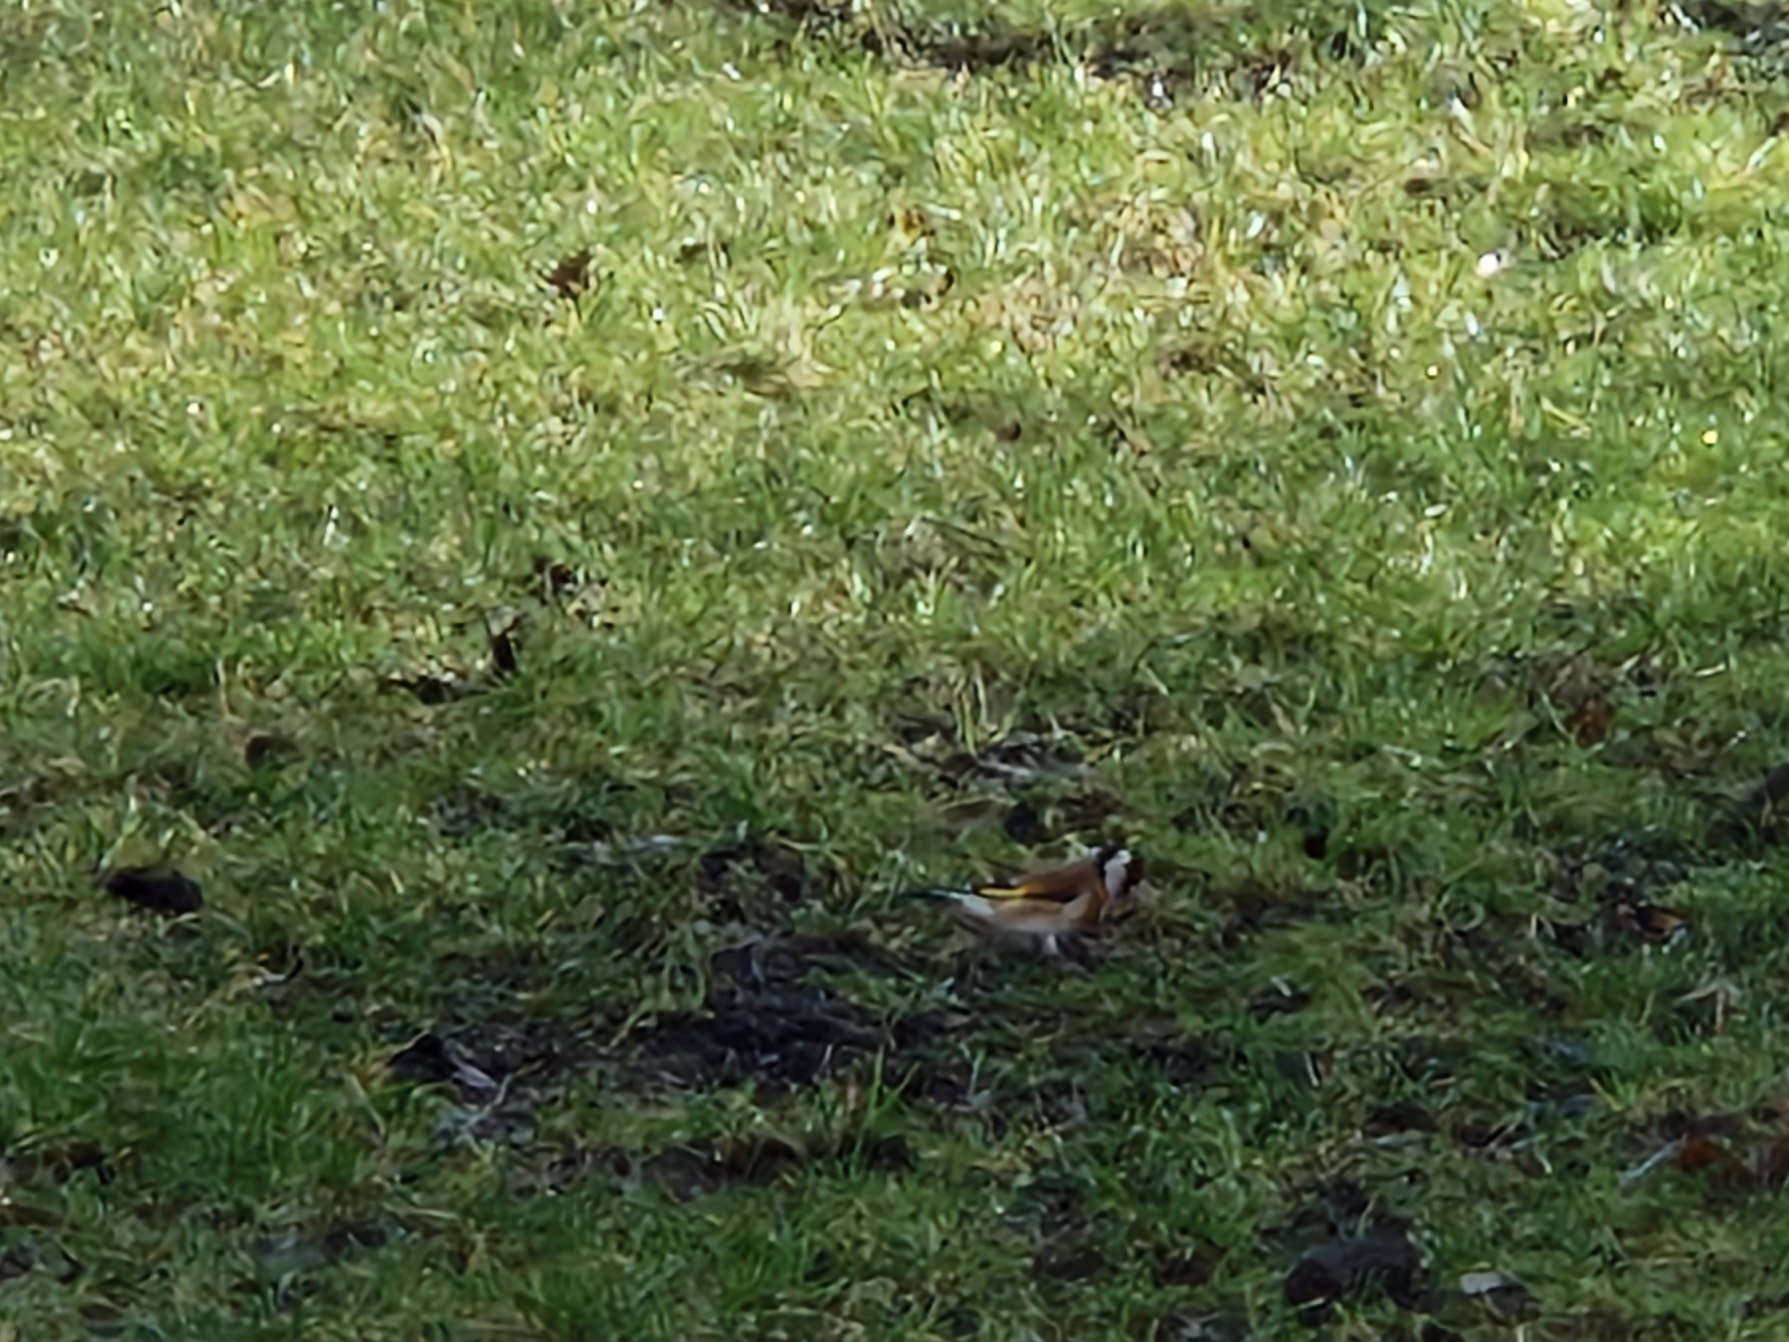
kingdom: Animalia
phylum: Chordata
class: Aves
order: Passeriformes
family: Fringillidae
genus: Carduelis
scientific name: Carduelis carduelis
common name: Stillits
